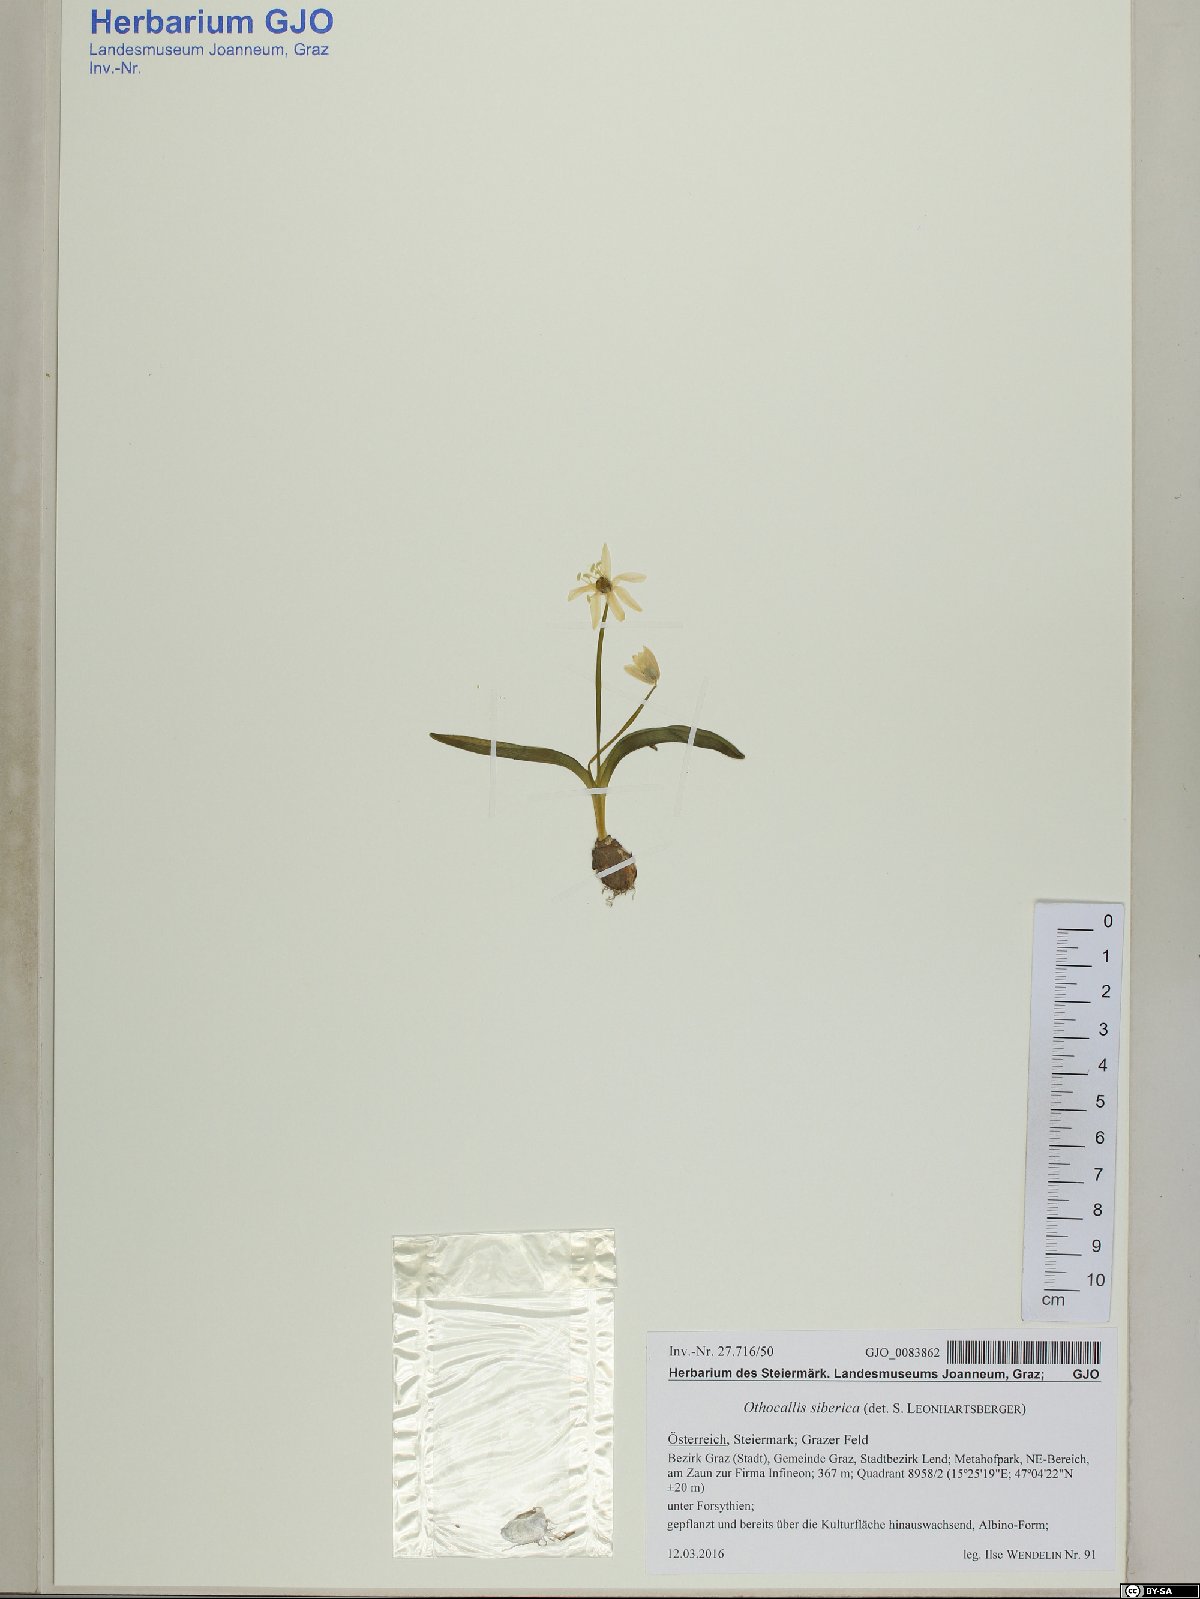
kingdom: Plantae
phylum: Tracheophyta
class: Liliopsida
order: Asparagales
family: Asparagaceae
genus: Scilla
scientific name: Scilla siberica
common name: Siberian squill
